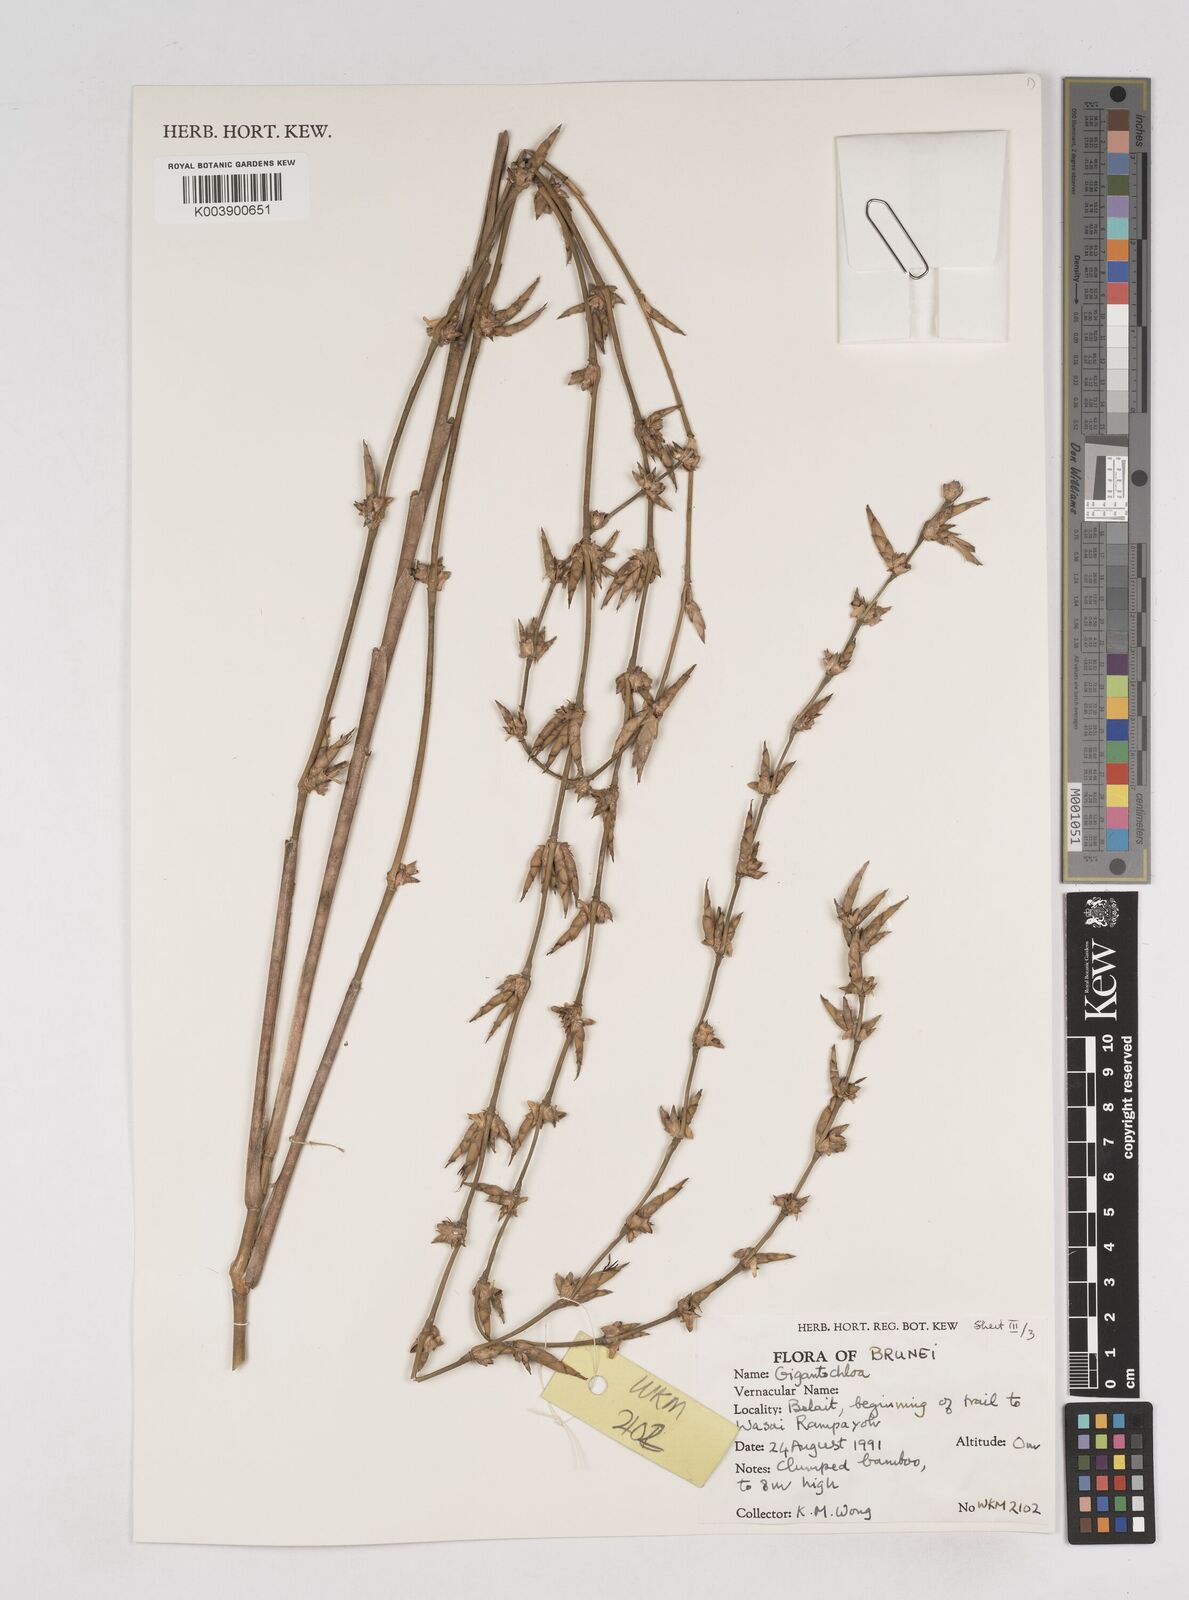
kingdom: Plantae
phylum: Tracheophyta
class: Liliopsida
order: Poales
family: Poaceae
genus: Gigantochloa
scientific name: Gigantochloa
